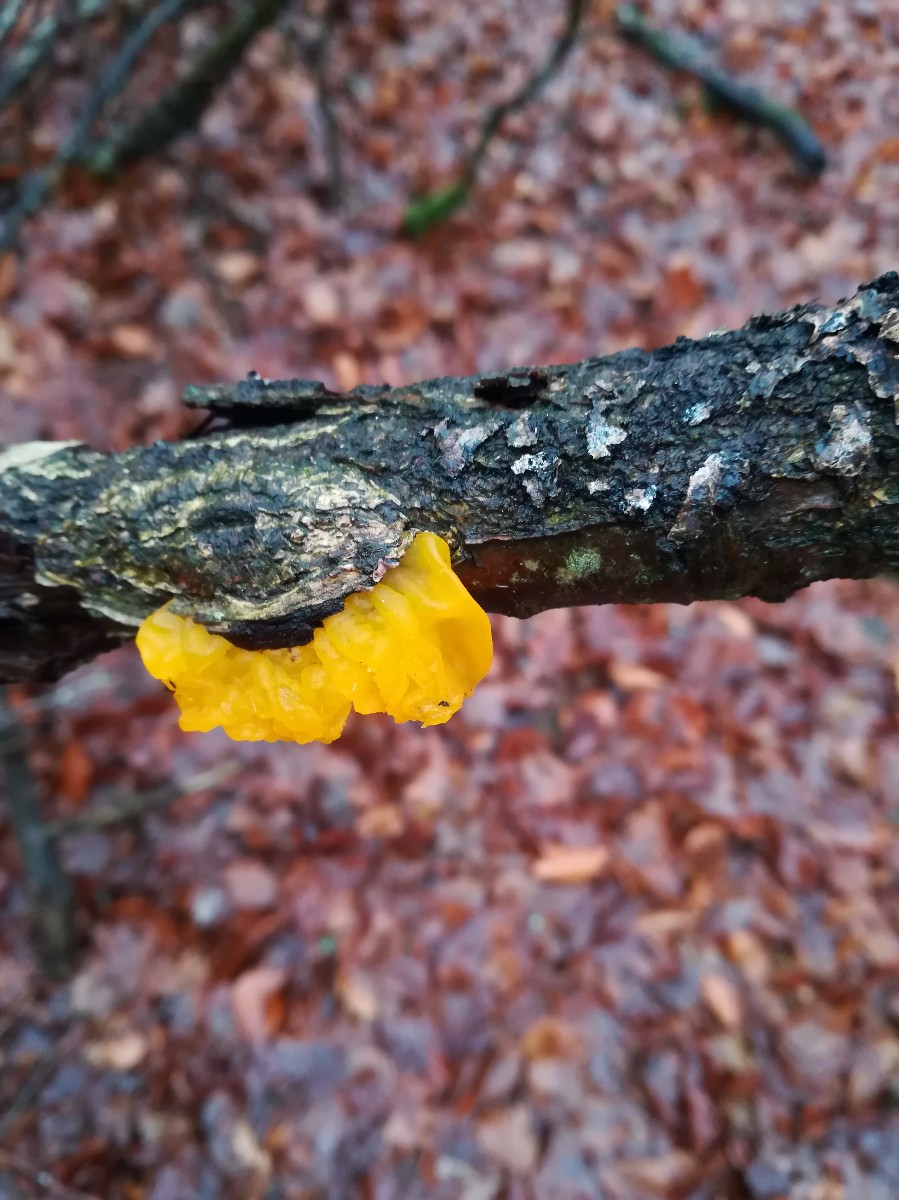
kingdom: Fungi
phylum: Basidiomycota
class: Tremellomycetes
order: Tremellales
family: Tremellaceae
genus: Tremella
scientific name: Tremella mesenterica
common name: gul bævresvamp
